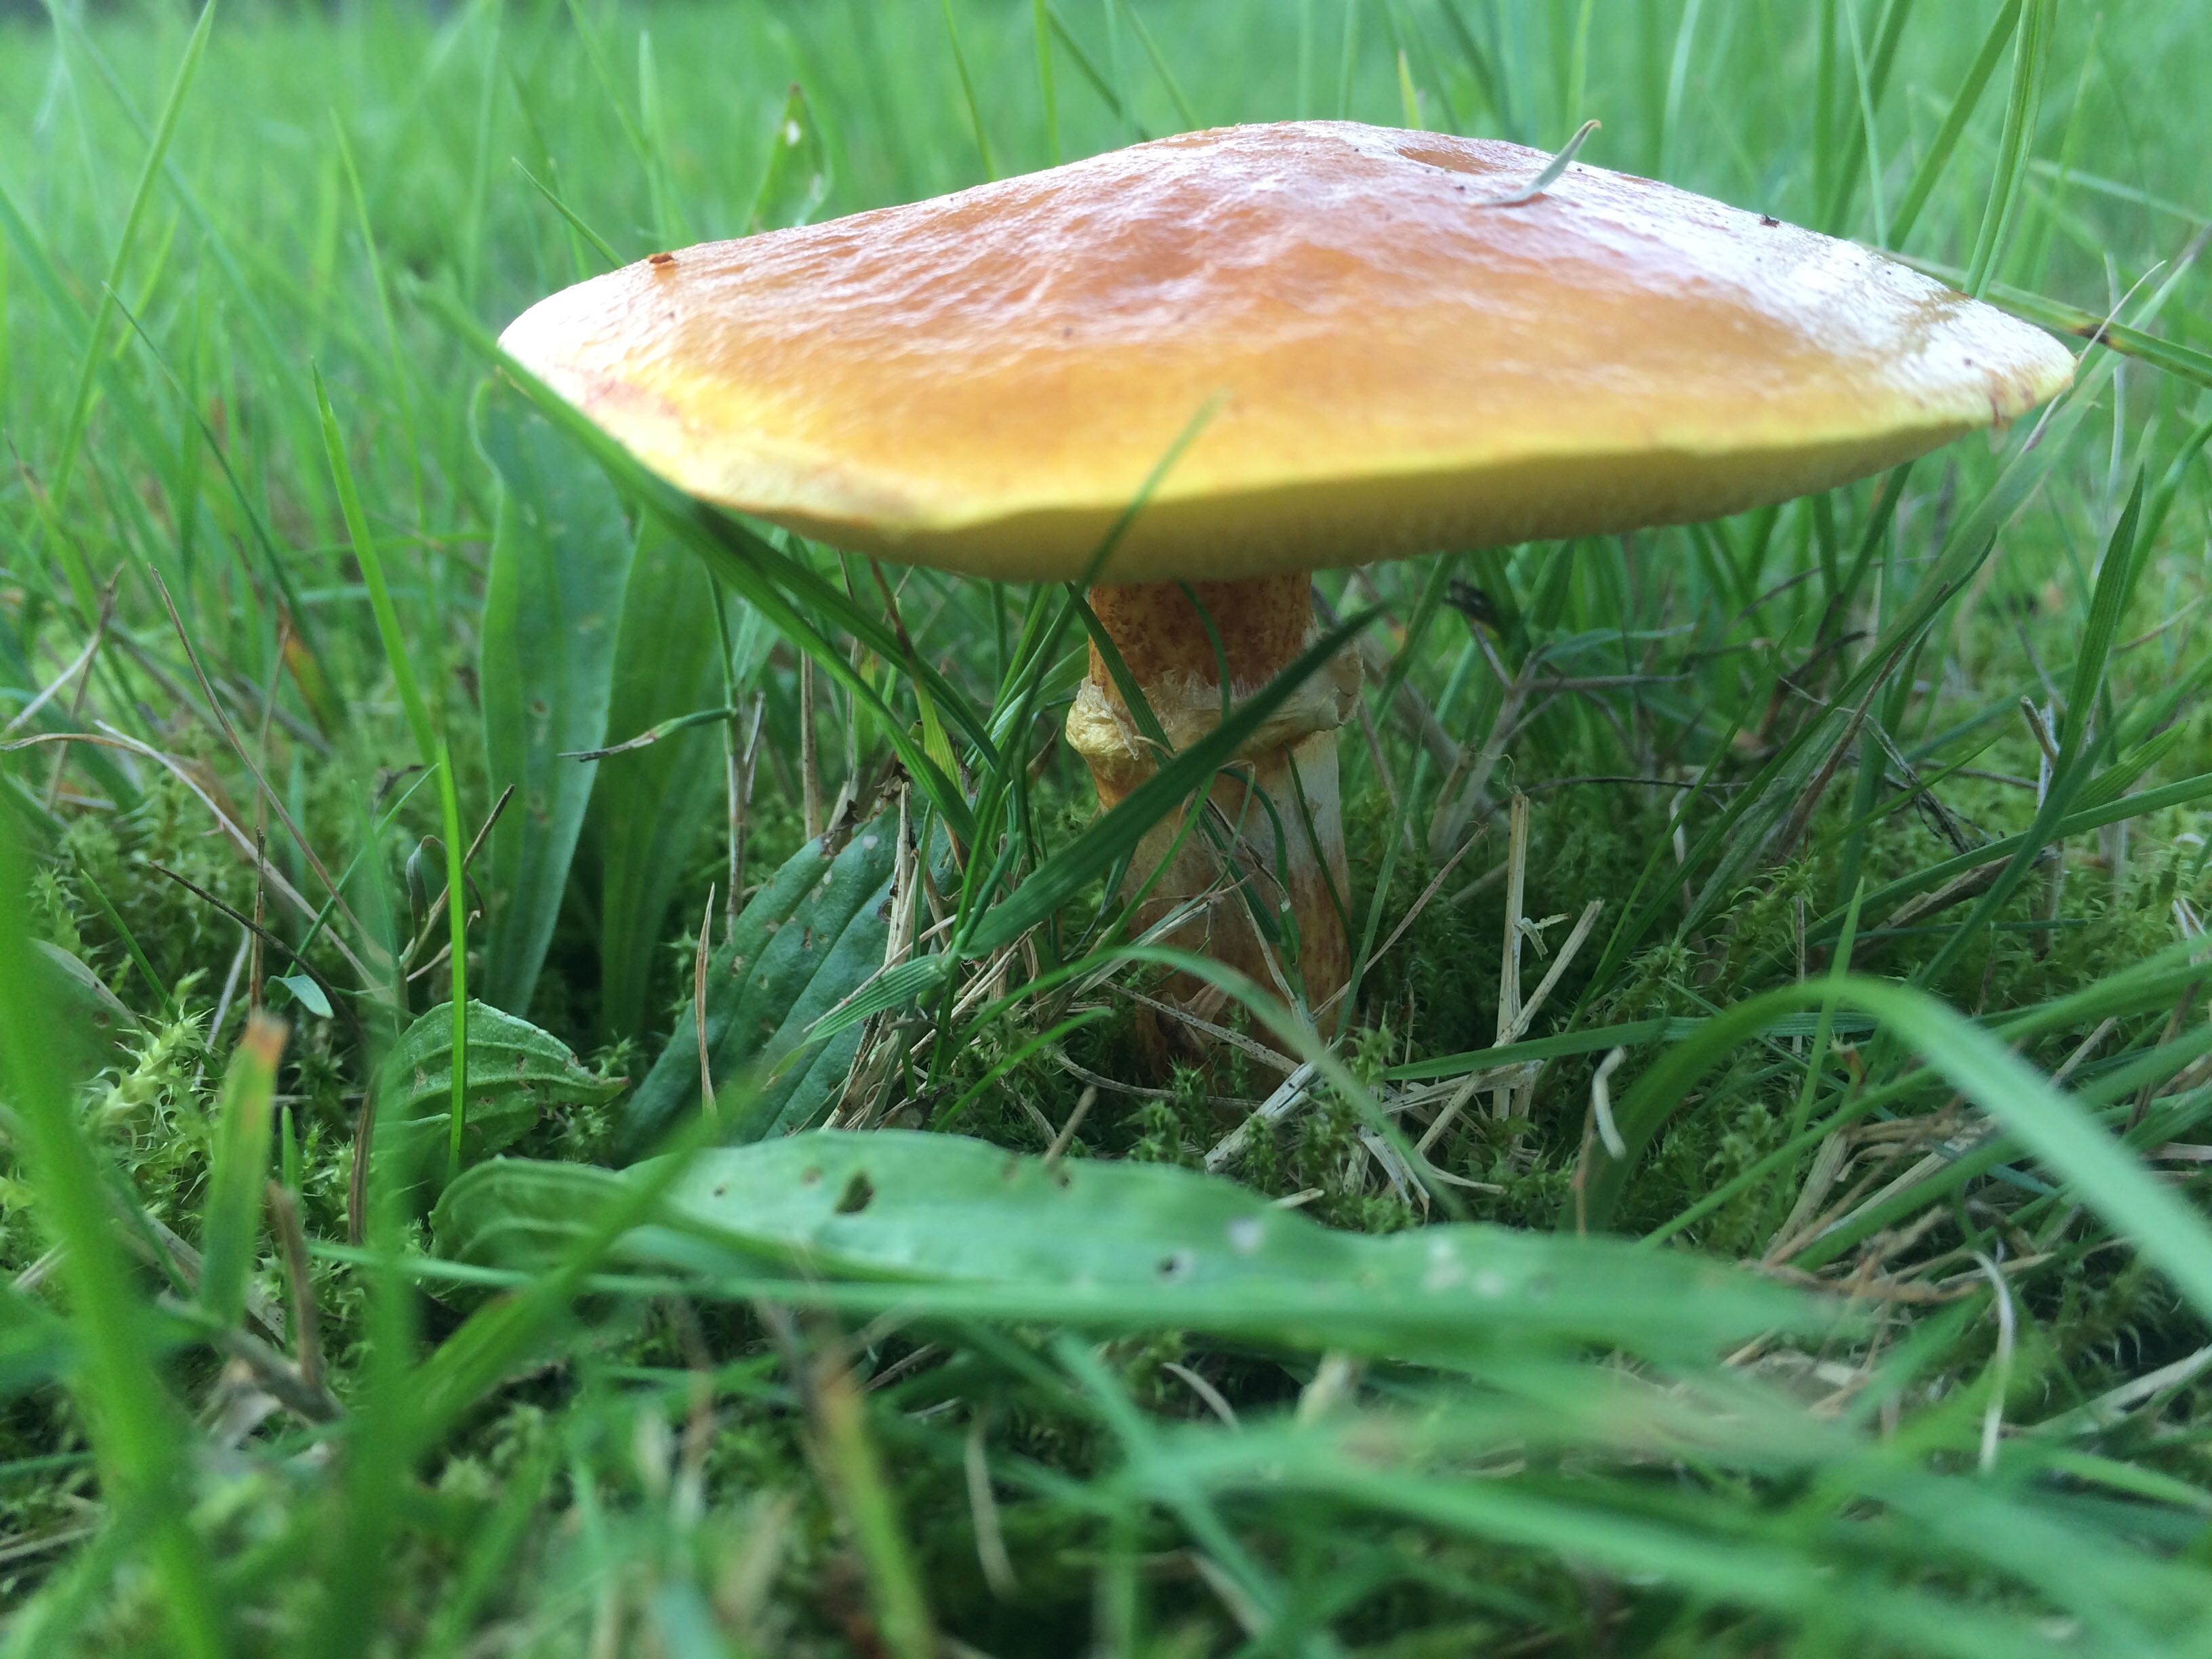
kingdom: Fungi
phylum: Basidiomycota
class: Agaricomycetes
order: Boletales
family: Suillaceae
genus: Suillus
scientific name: Suillus grevillei
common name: lærke-slimrørhat
